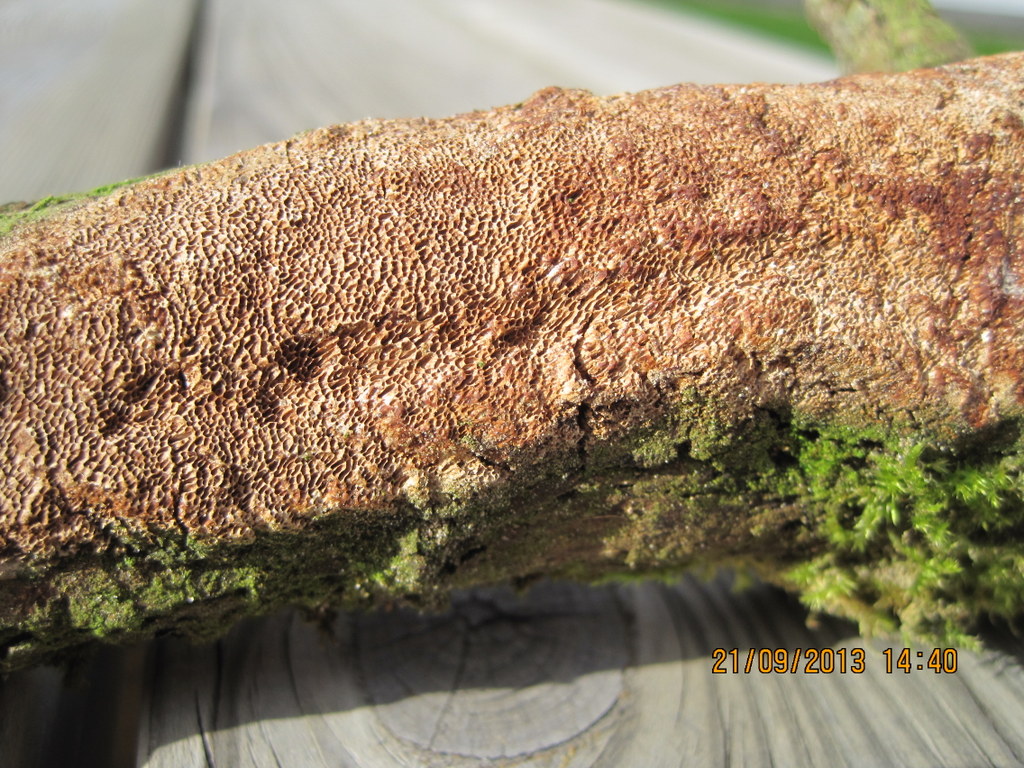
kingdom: Fungi
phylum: Basidiomycota
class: Agaricomycetes
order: Hymenochaetales
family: Hymenochaetaceae
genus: Fuscoporia
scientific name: Fuscoporia contigua
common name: grov ildporesvamp
